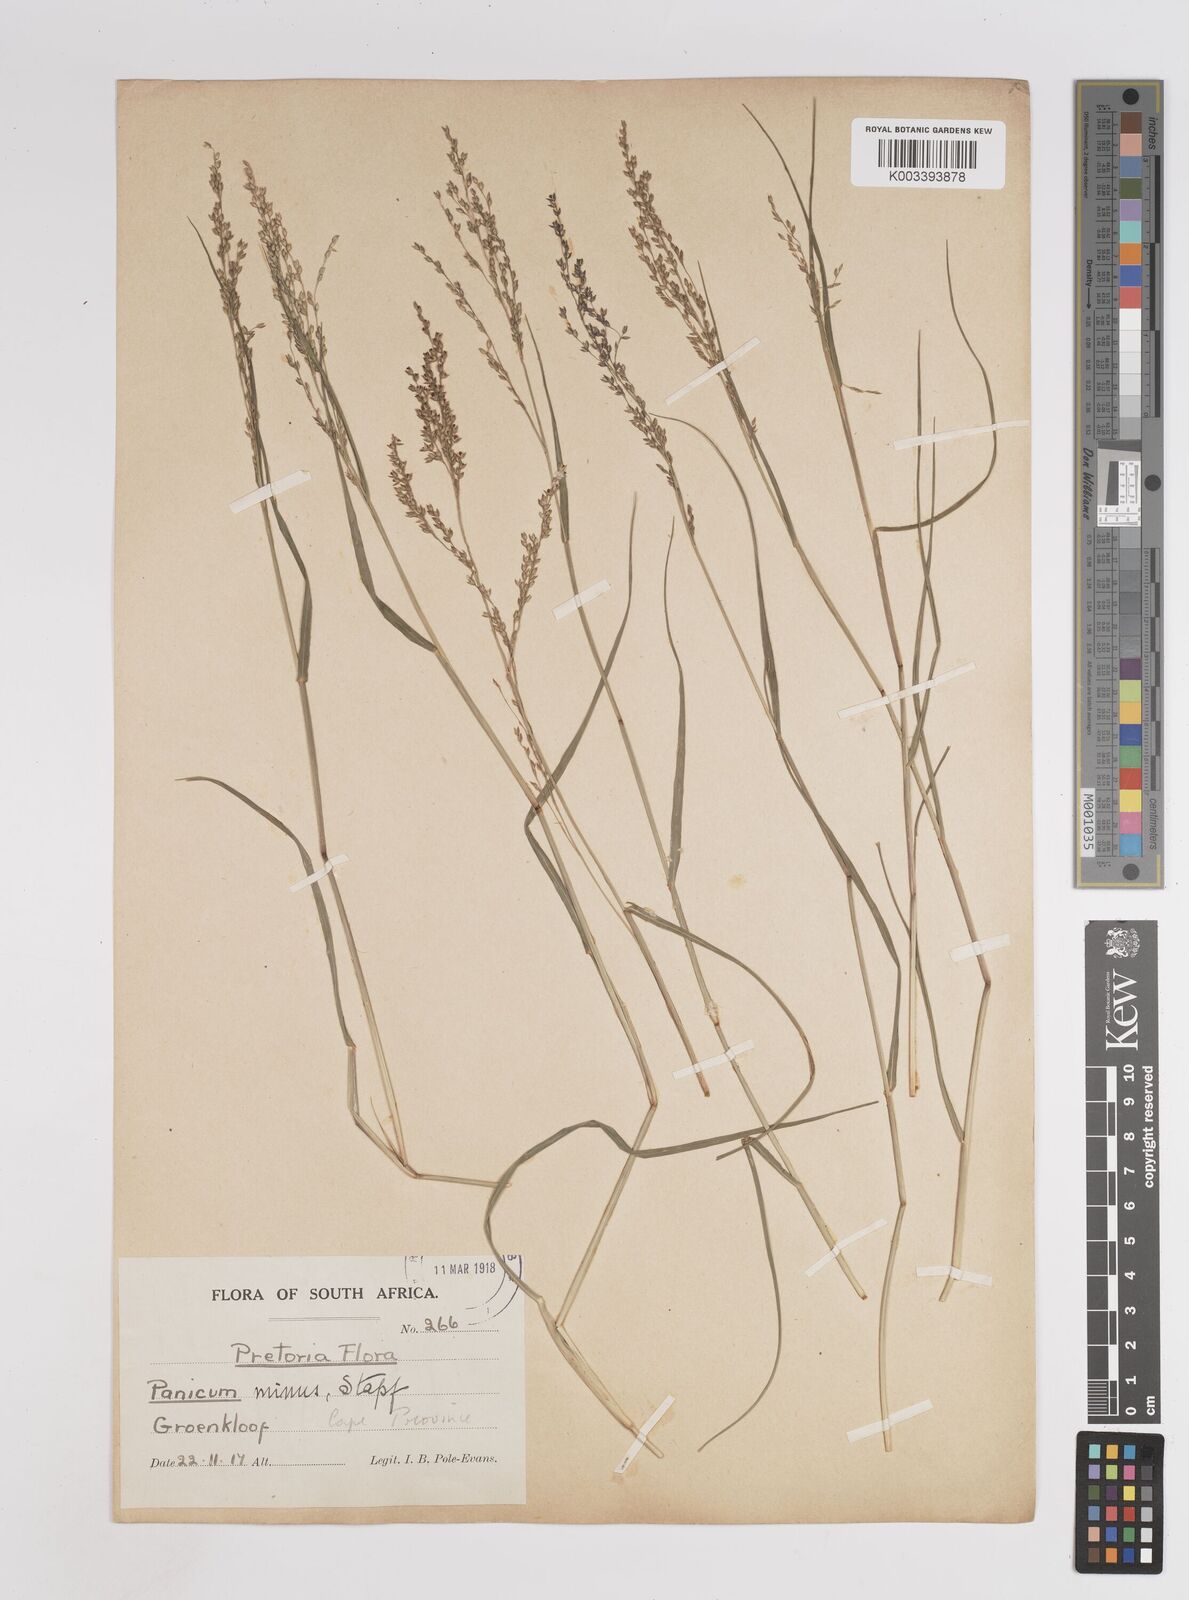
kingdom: Plantae
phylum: Tracheophyta
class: Liliopsida
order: Poales
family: Poaceae
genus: Panicum
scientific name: Panicum stapfianum
